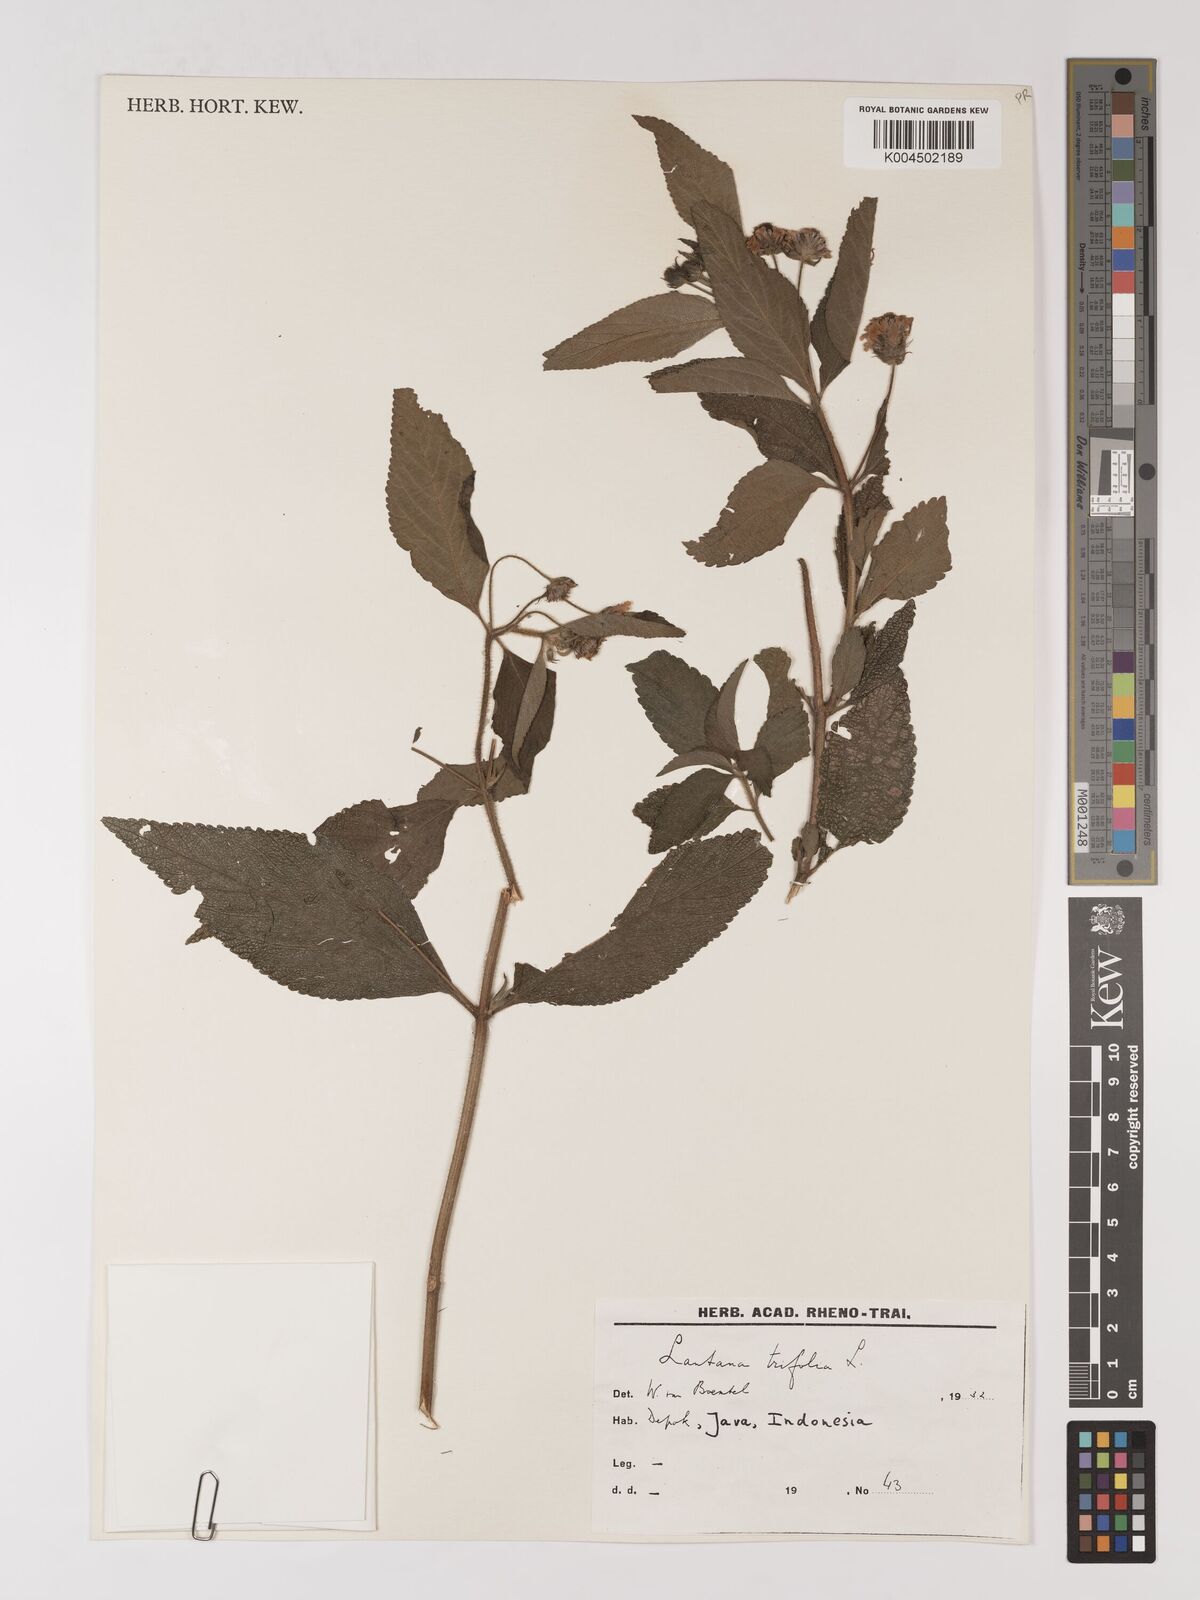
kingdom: Plantae
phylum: Tracheophyta
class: Magnoliopsida
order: Lamiales
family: Verbenaceae
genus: Lantana
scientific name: Lantana trifolia
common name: Sweet-sage
